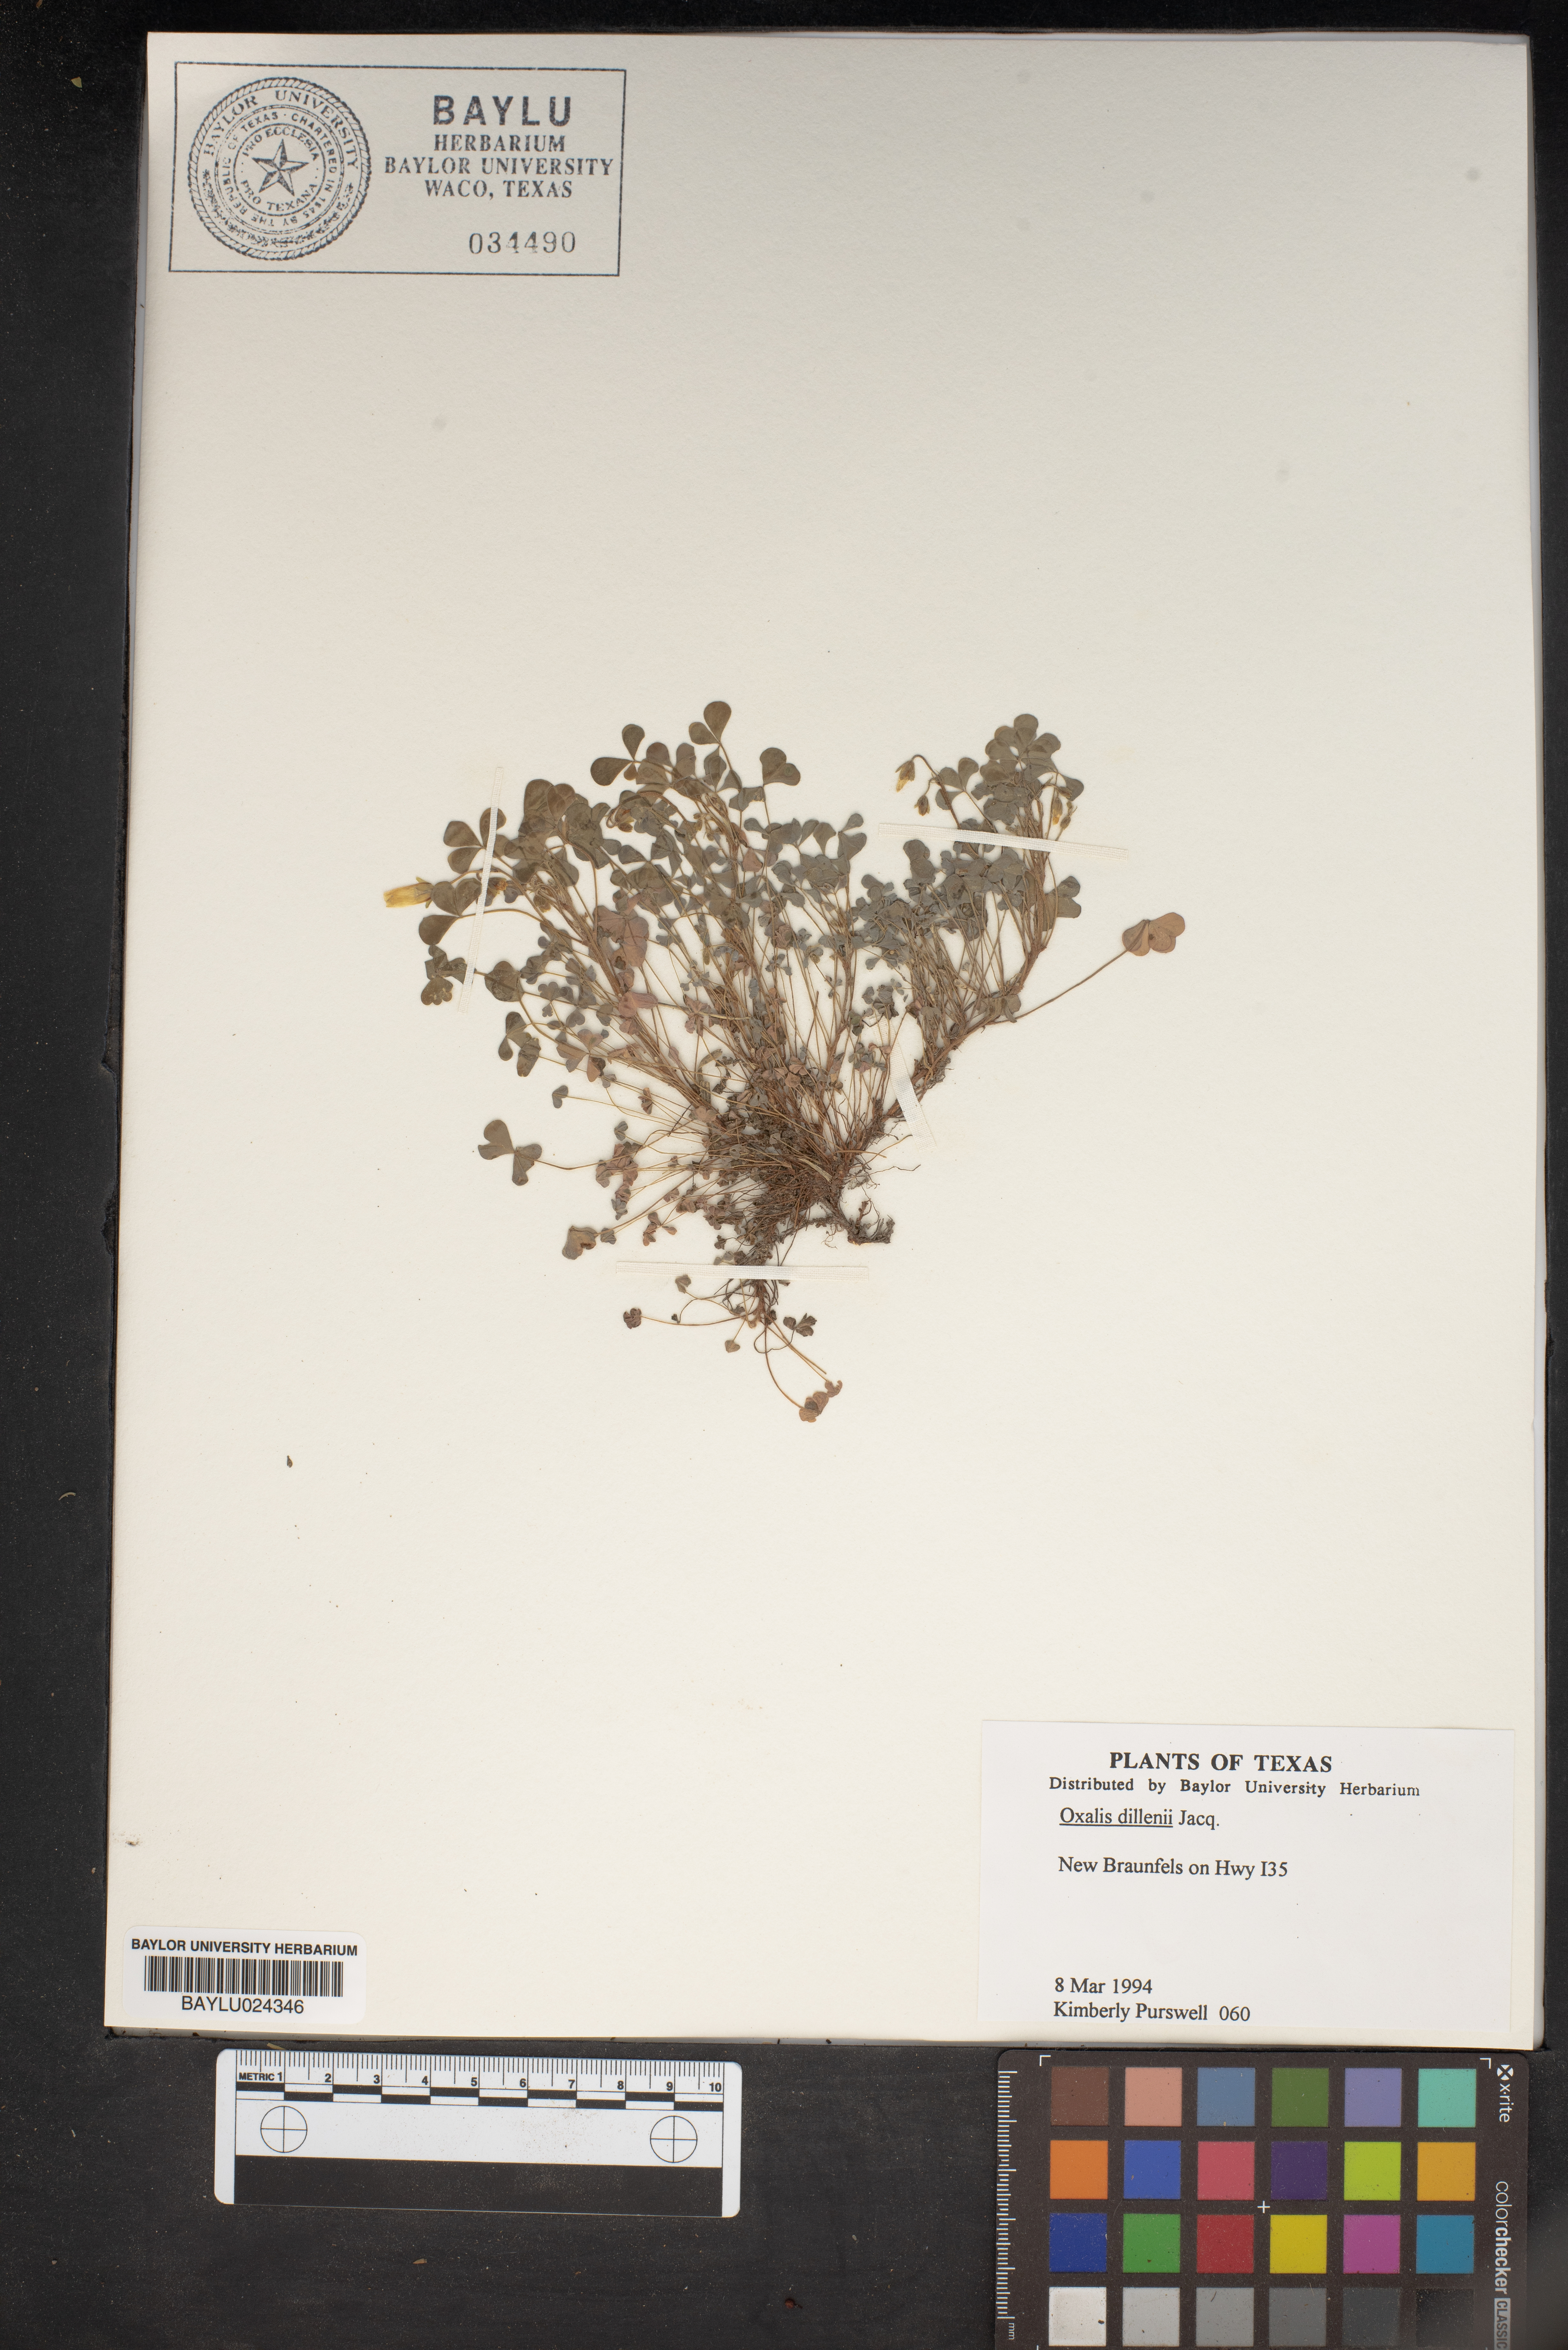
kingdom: Plantae
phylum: Tracheophyta
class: Magnoliopsida
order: Oxalidales
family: Oxalidaceae
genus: Oxalis
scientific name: Oxalis dillenii
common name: Sussex yellow-sorrel
